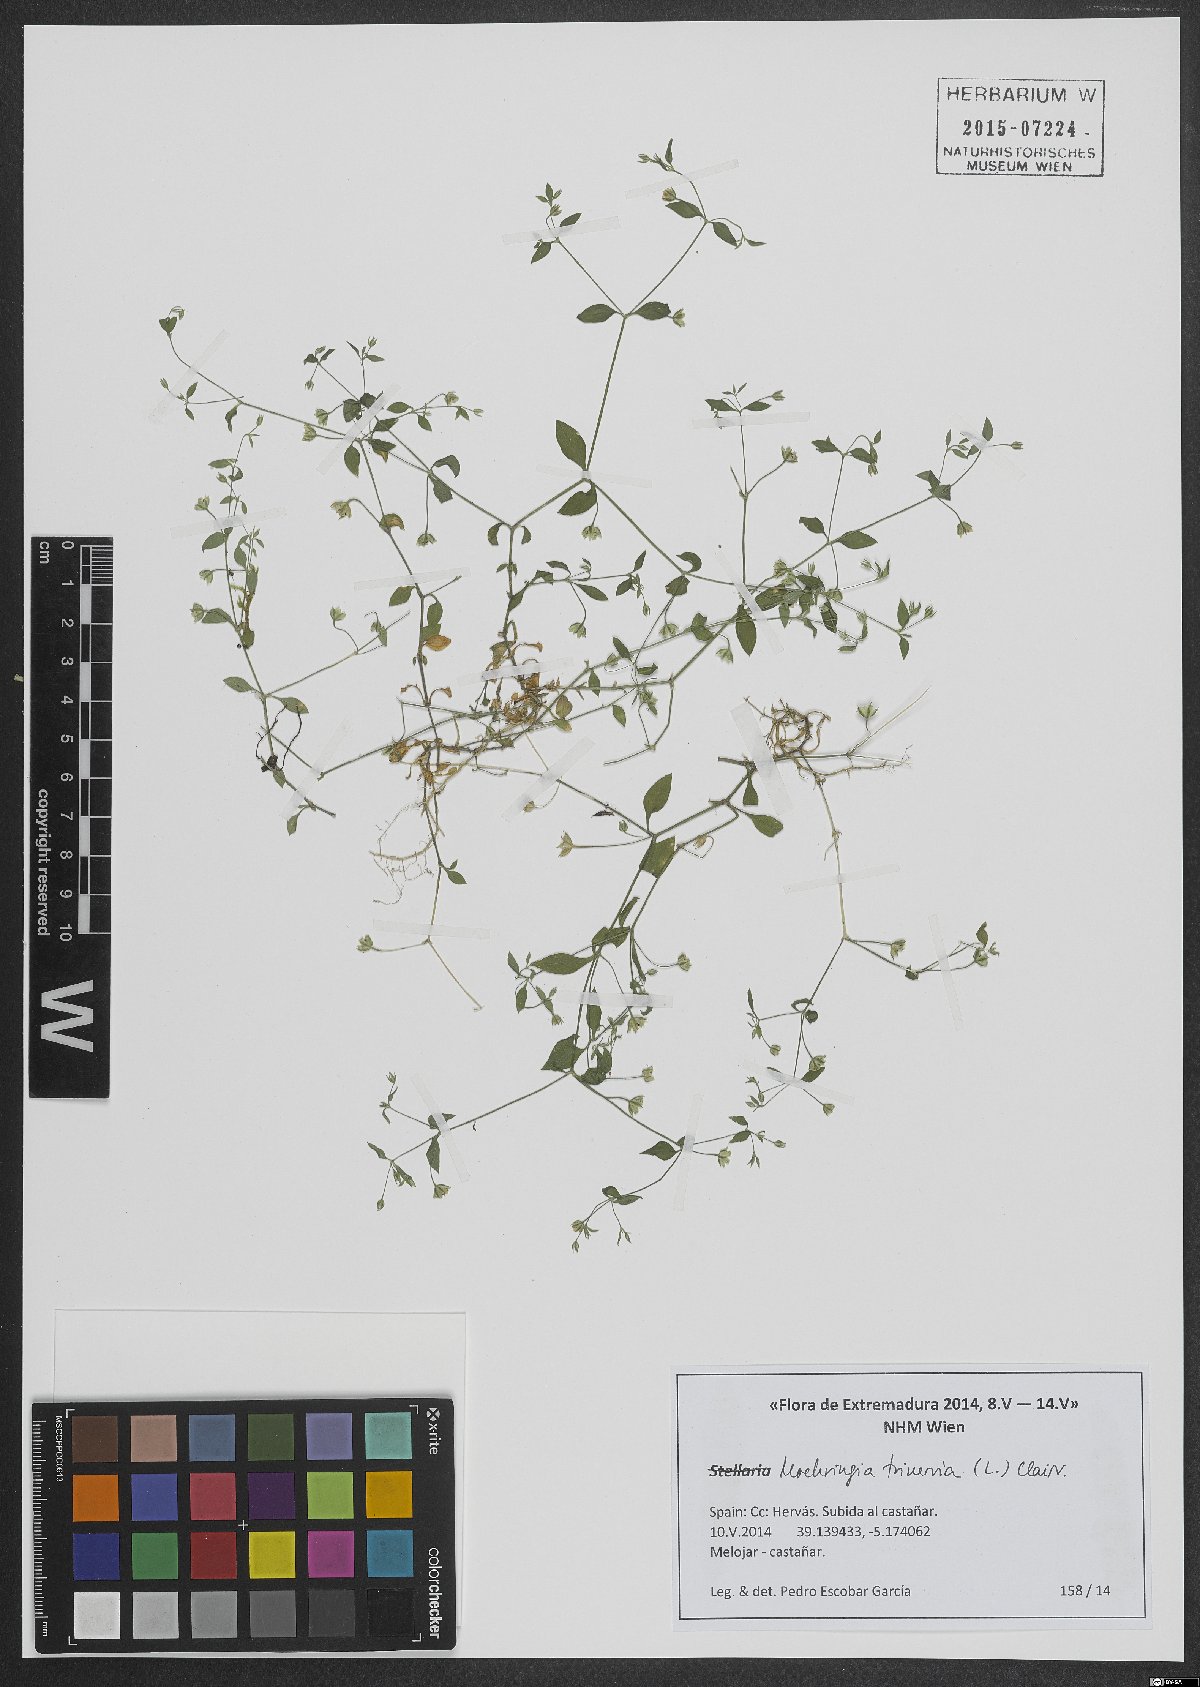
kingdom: Plantae
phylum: Tracheophyta
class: Magnoliopsida
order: Caryophyllales
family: Caryophyllaceae
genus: Moehringia
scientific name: Moehringia trinervia
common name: Three-nerved sandwort
